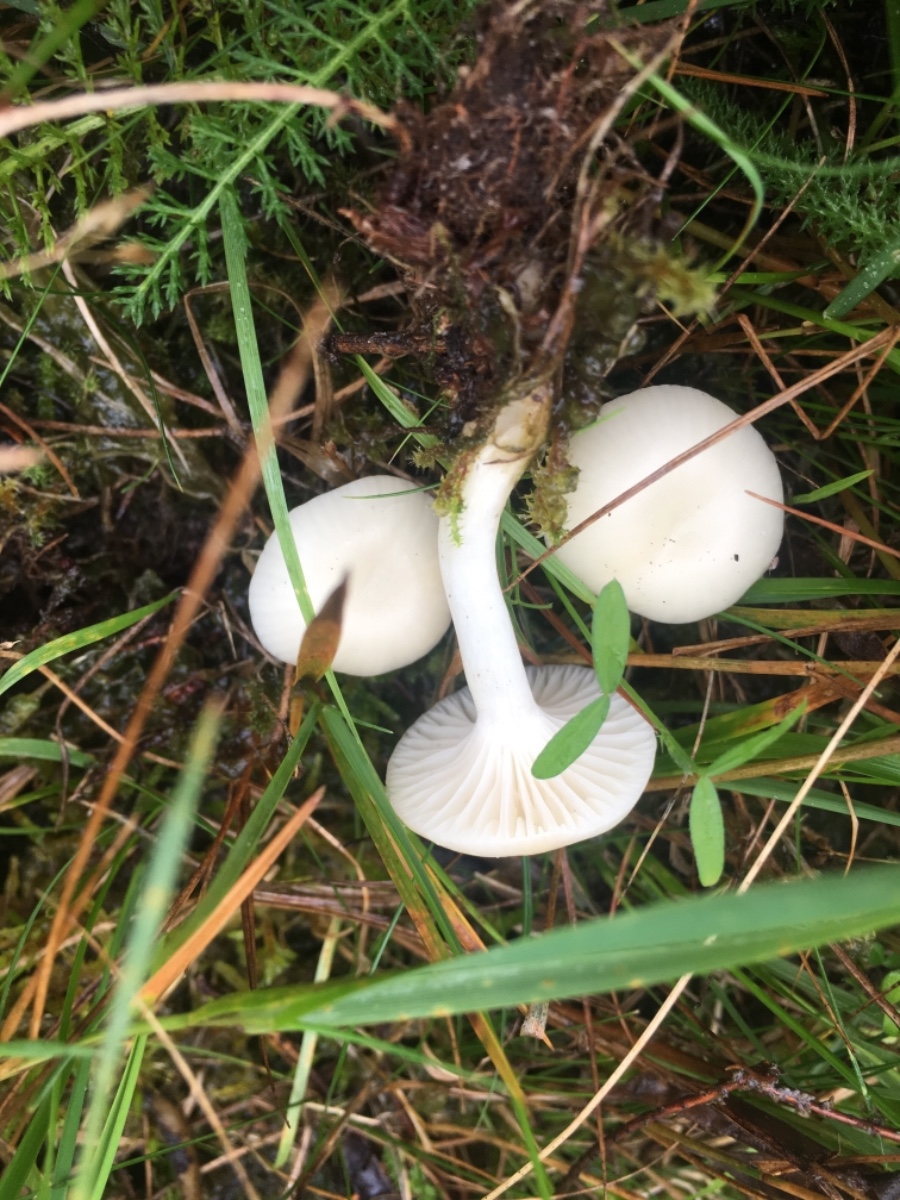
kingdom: Fungi
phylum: Basidiomycota
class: Agaricomycetes
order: Agaricales
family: Hygrophoraceae
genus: Cuphophyllus
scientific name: Cuphophyllus virgineus
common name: snehvid vokshat
